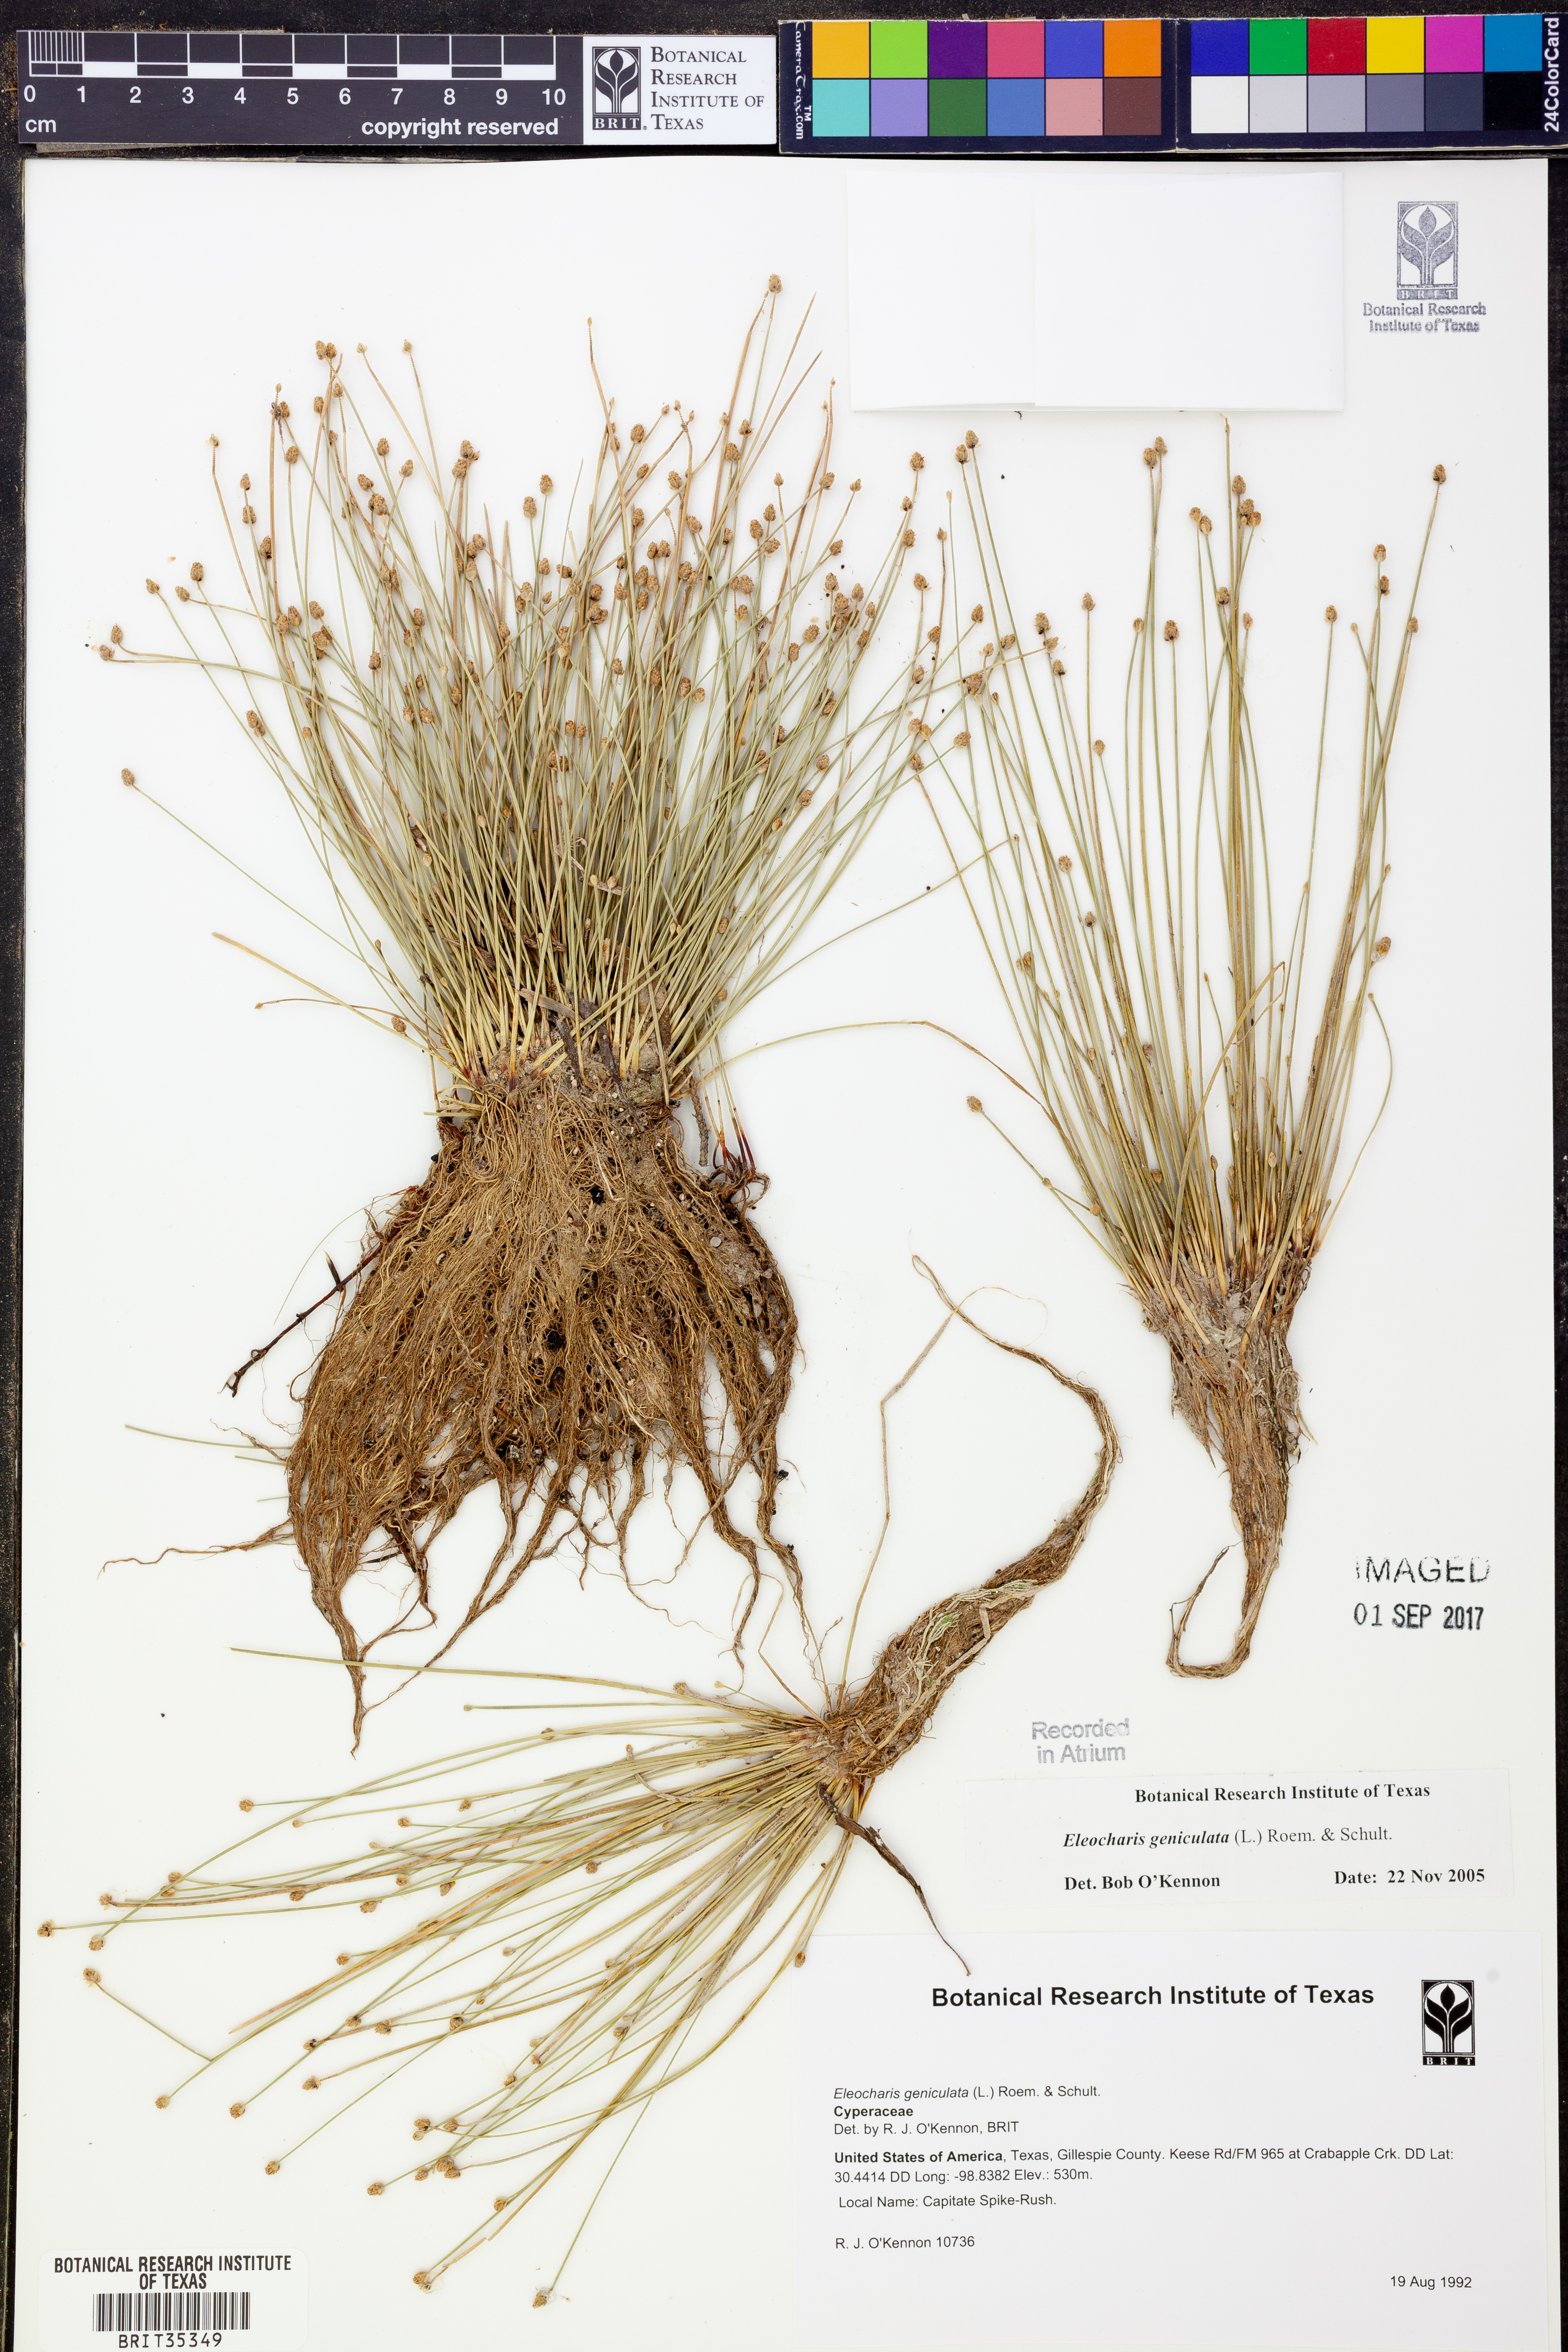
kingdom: Plantae
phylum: Tracheophyta
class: Liliopsida
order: Poales
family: Cyperaceae
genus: Eleocharis
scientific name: Eleocharis geniculata
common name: Canada spikesedge
